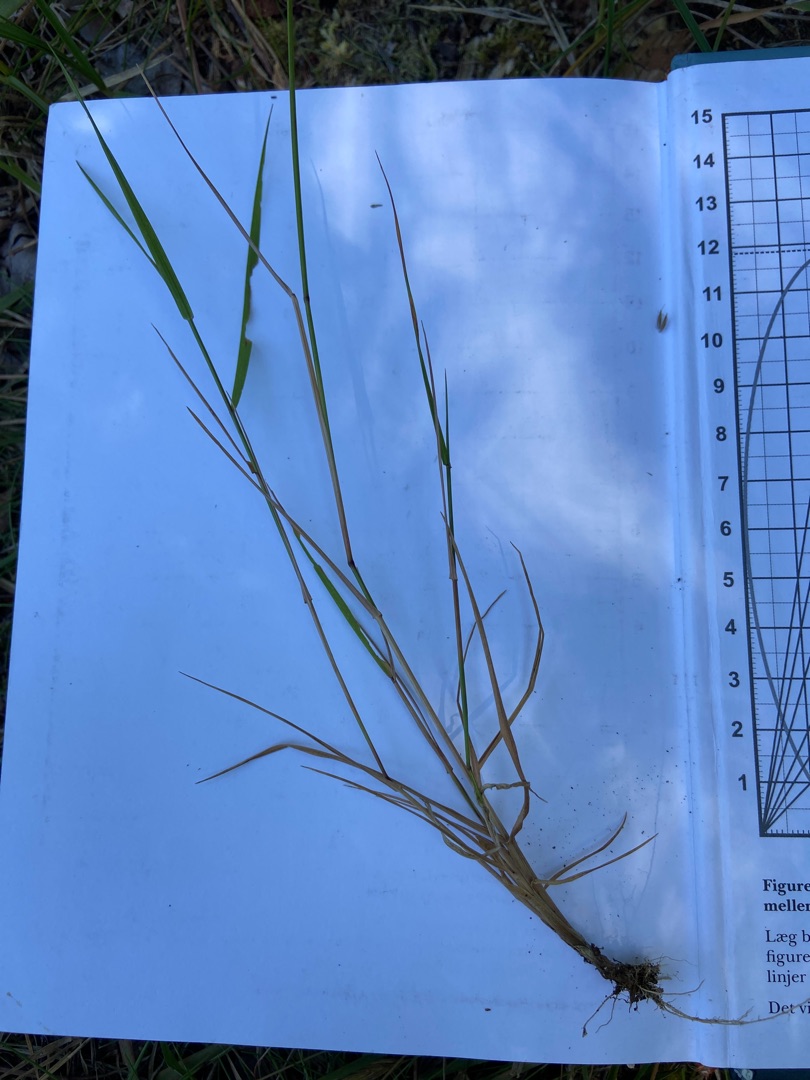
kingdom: Plantae
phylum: Tracheophyta
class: Liliopsida
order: Poales
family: Poaceae
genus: Agrostis
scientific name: Agrostis capillaris
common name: Almindelig hvene
